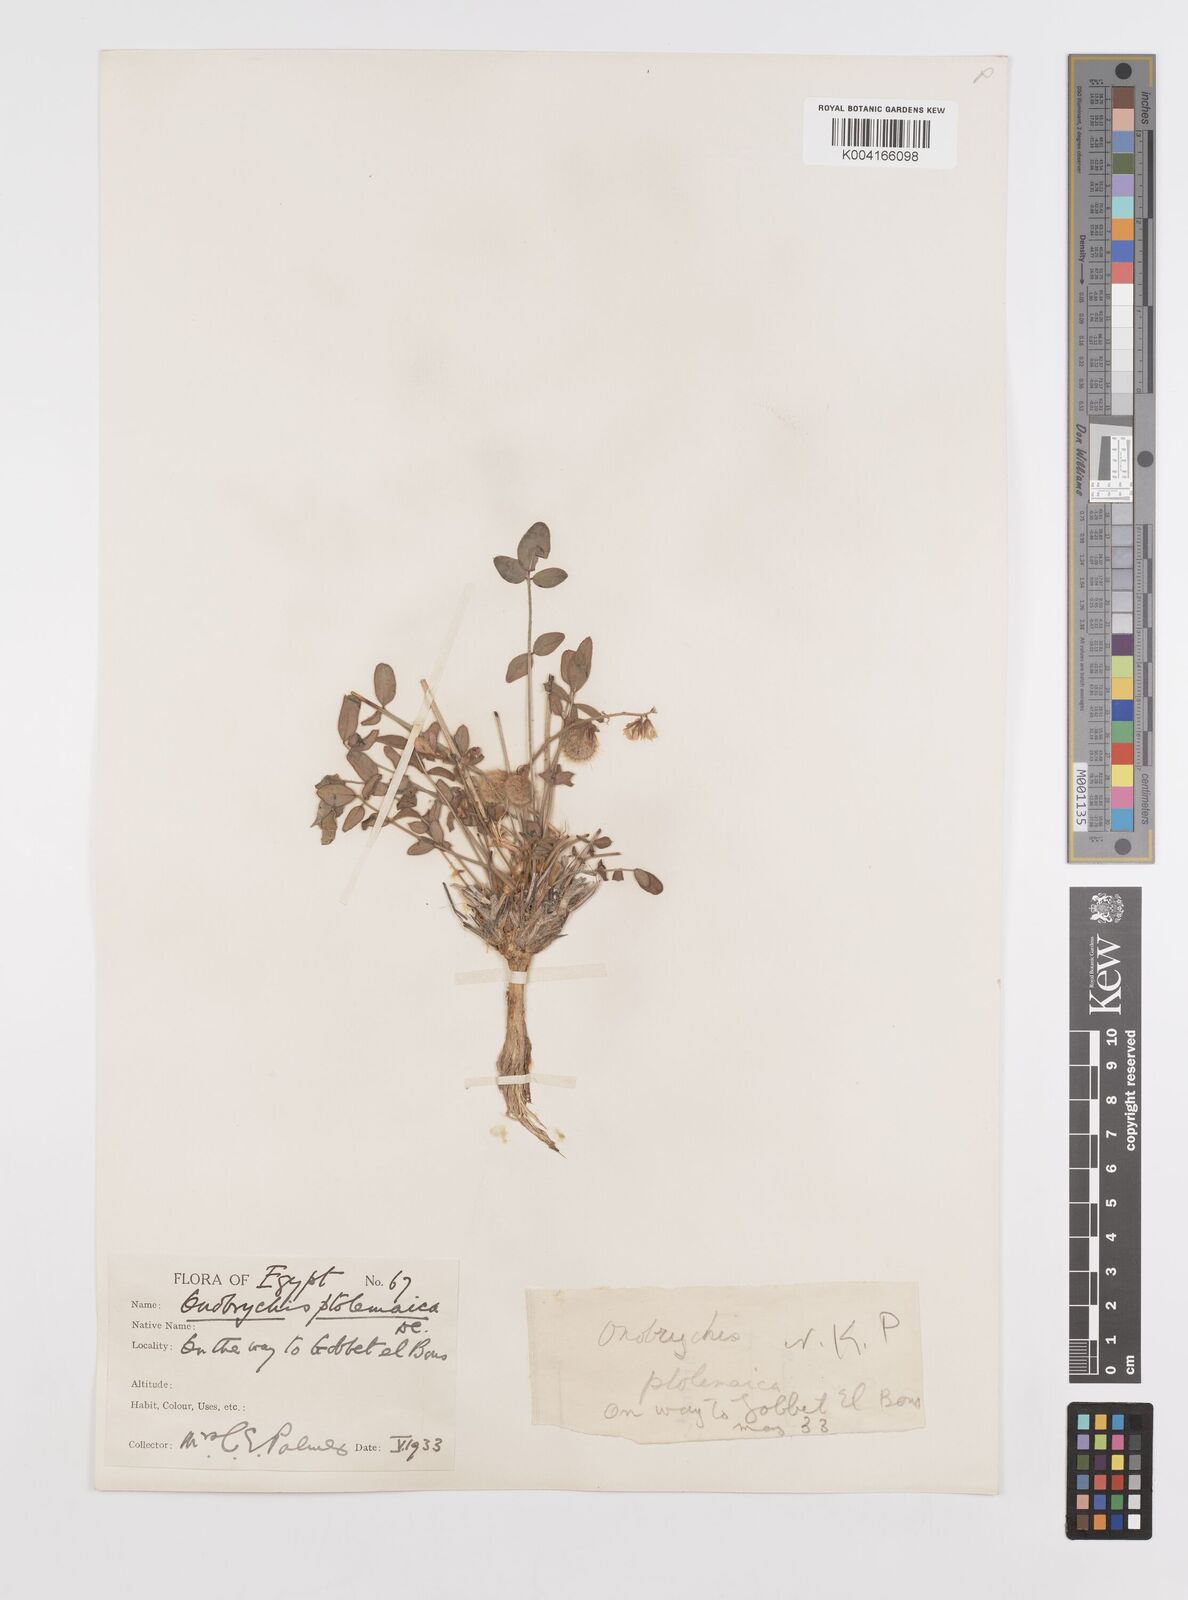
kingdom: Plantae
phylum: Tracheophyta
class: Magnoliopsida
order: Fabales
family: Fabaceae
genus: Onobrychis
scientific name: Onobrychis ptolemaica
